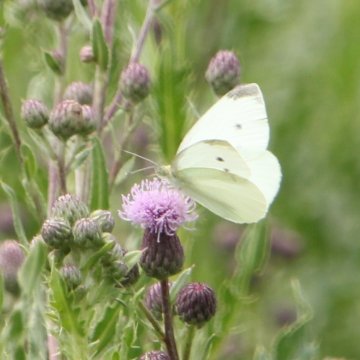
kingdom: Animalia
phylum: Arthropoda
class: Insecta
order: Lepidoptera
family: Pieridae
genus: Pieris
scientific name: Pieris rapae
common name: Cabbage White
